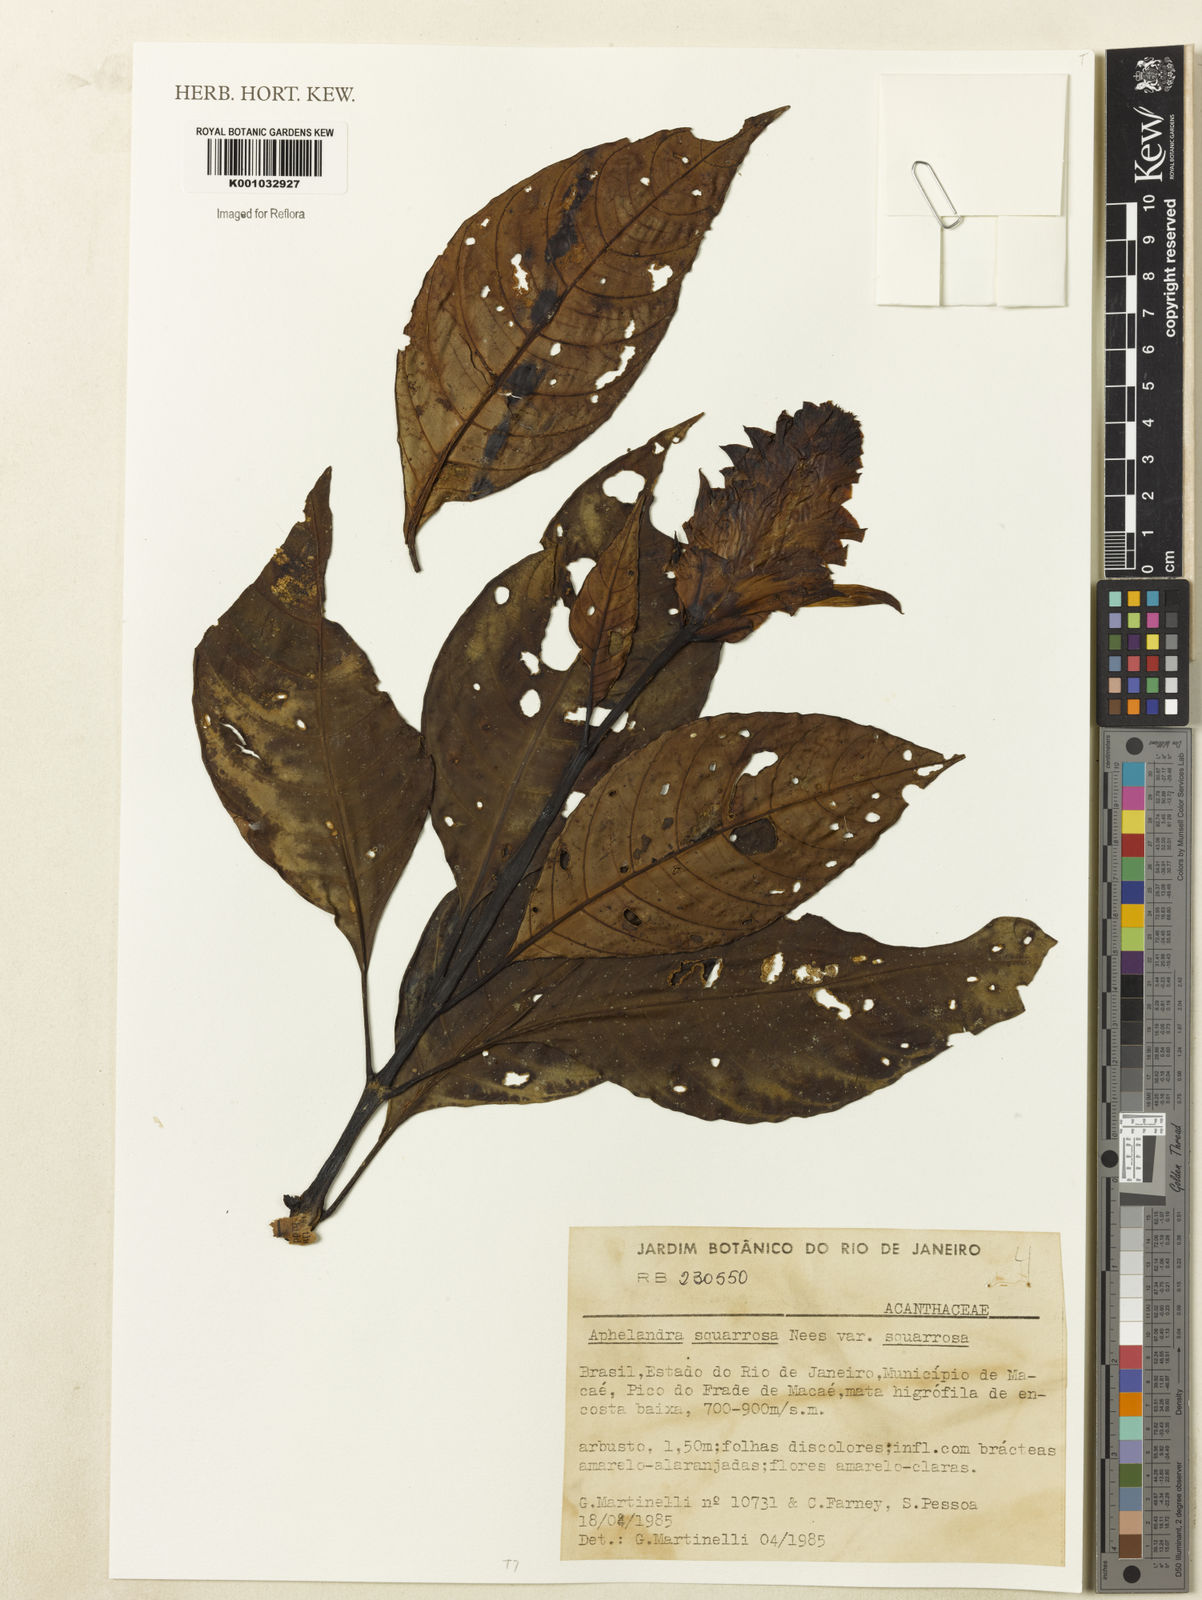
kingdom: Plantae
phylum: Tracheophyta
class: Magnoliopsida
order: Lamiales
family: Acanthaceae
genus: Aphelandra
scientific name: Aphelandra squarrosa
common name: Saffron spike
